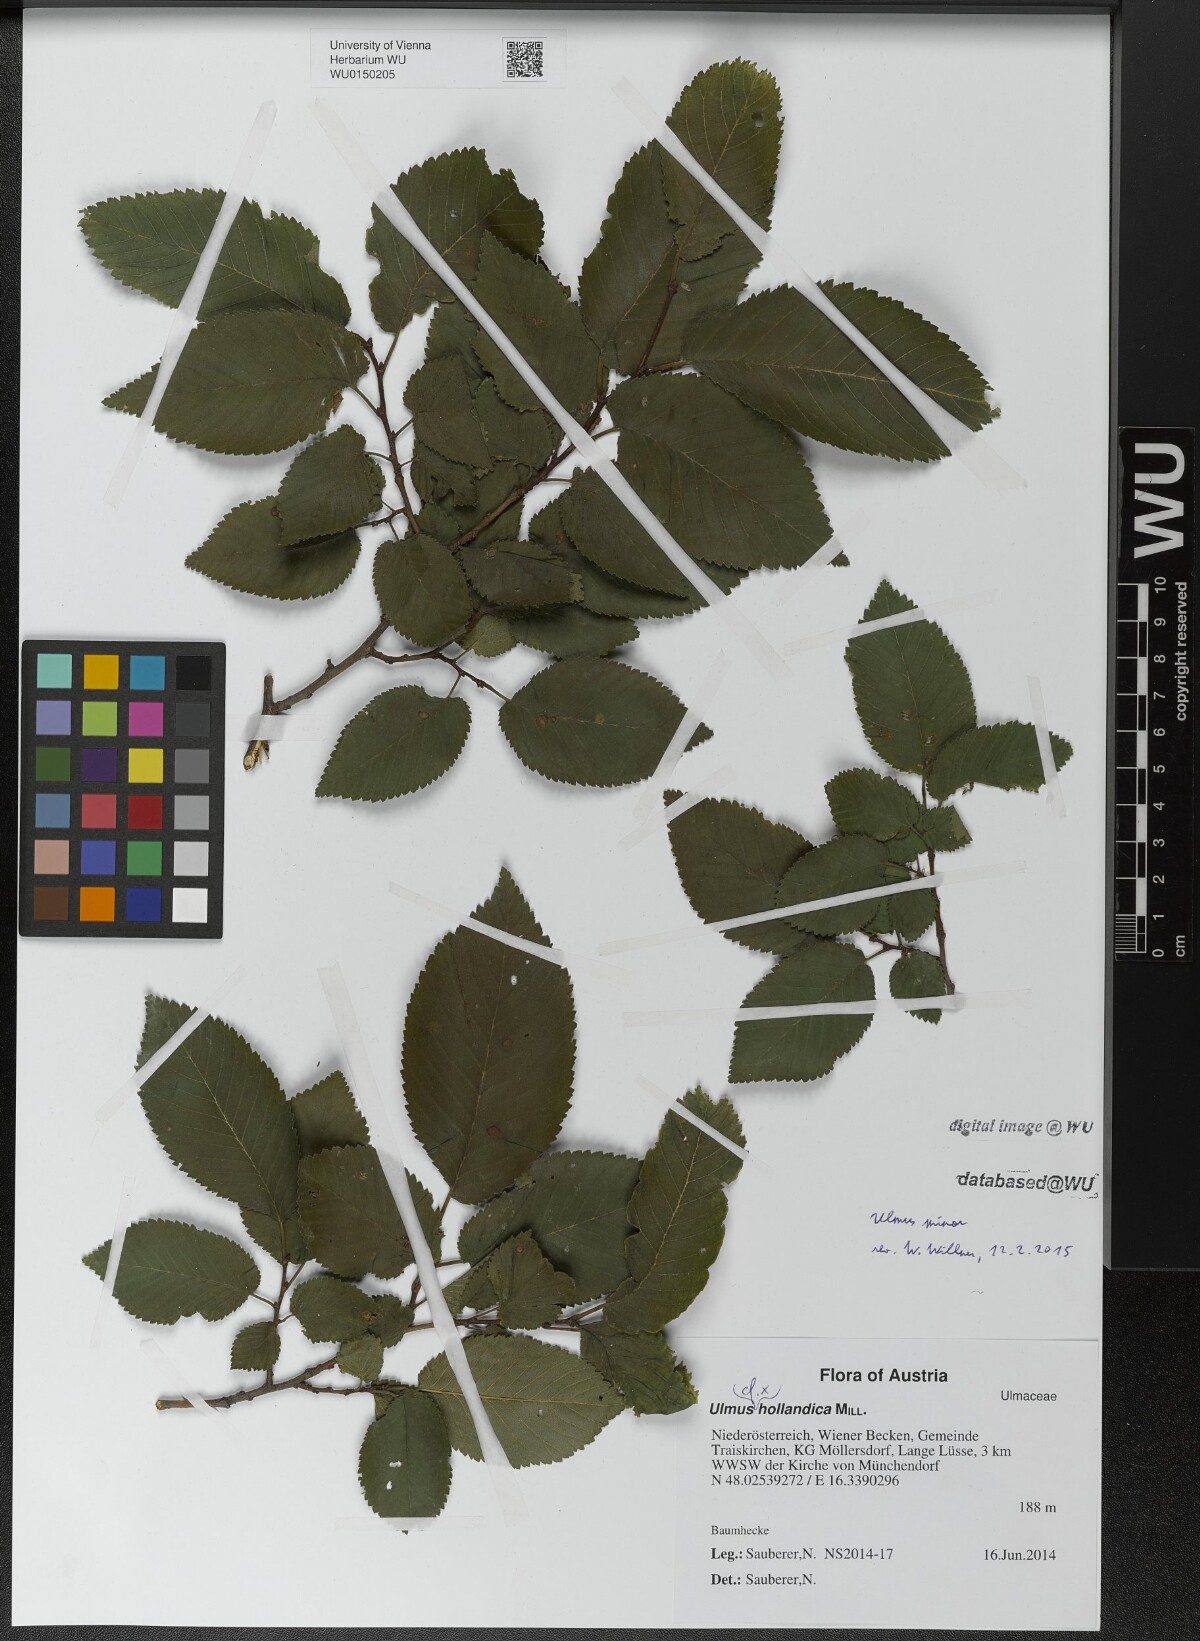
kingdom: Plantae
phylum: Tracheophyta
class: Magnoliopsida
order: Rosales
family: Ulmaceae
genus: Ulmus
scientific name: Ulmus minor
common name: Small-leaved elm
